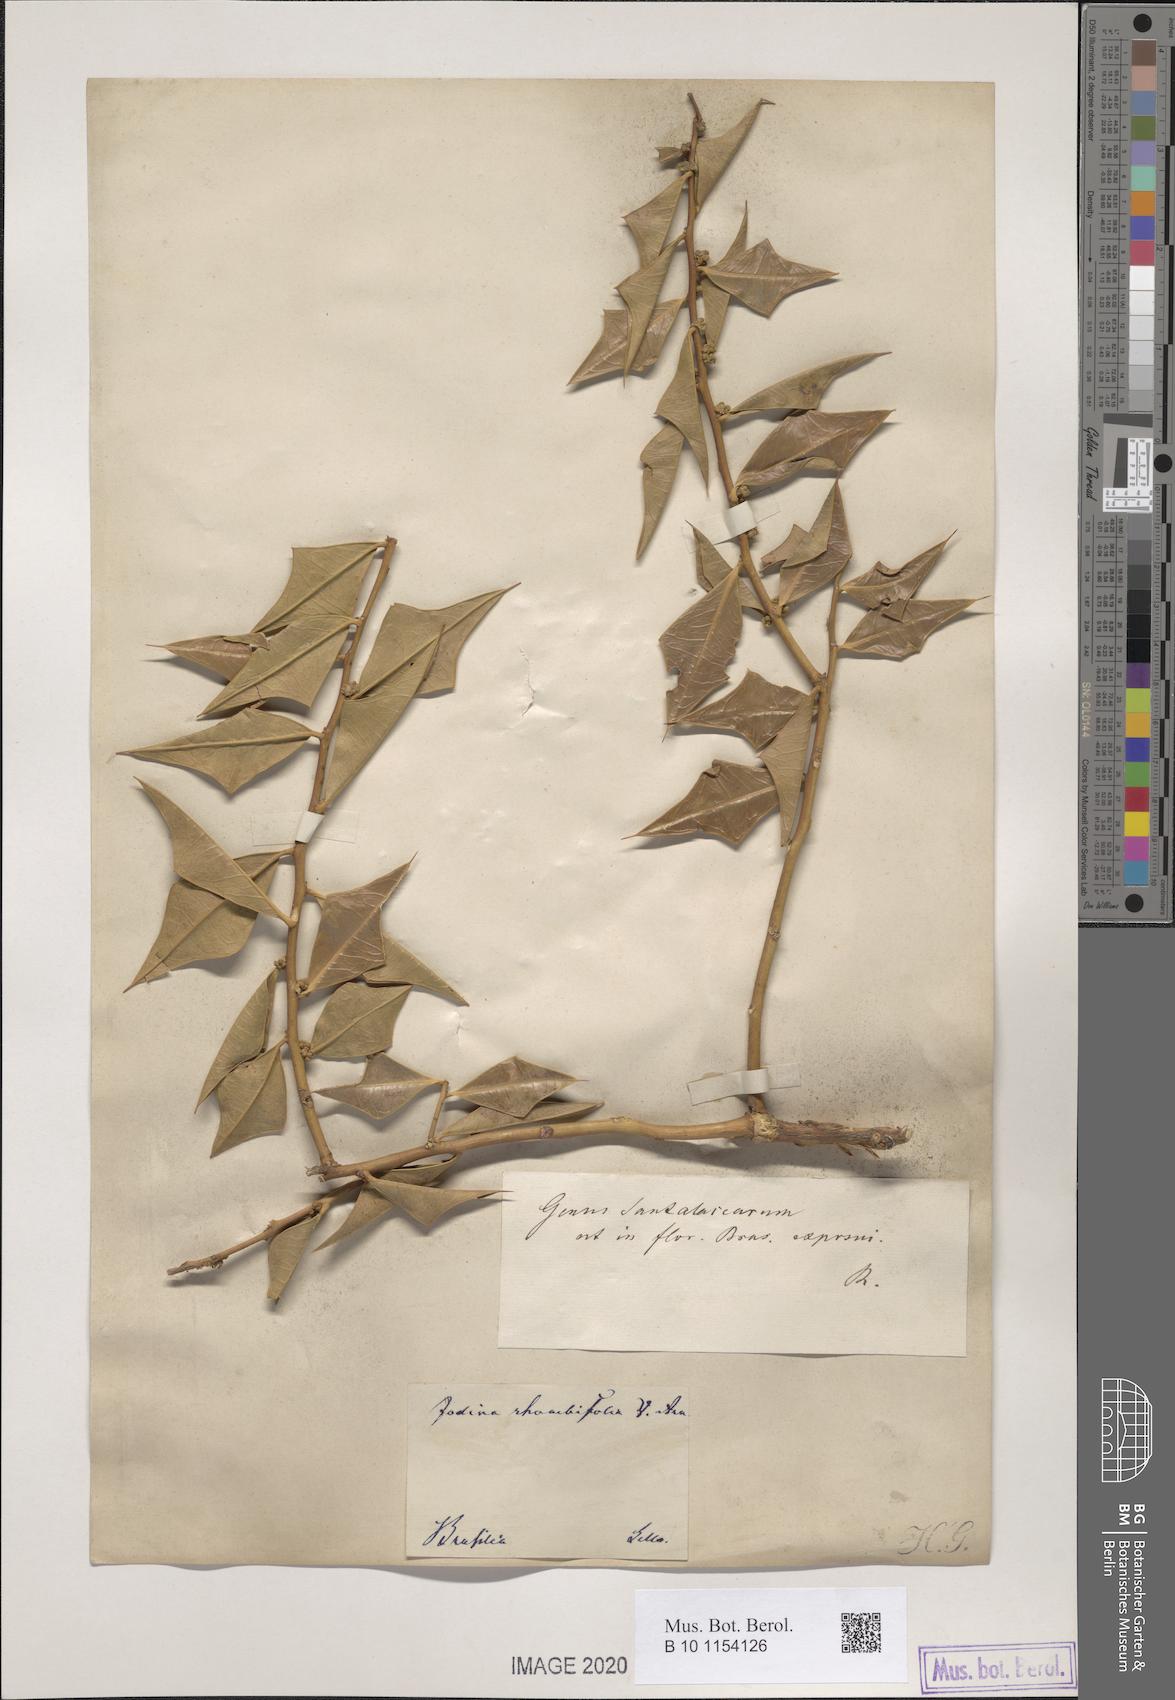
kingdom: Plantae
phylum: Tracheophyta
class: Magnoliopsida
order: Santalales
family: Cervantesiaceae
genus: Jodina
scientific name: Jodina rhombifolia
